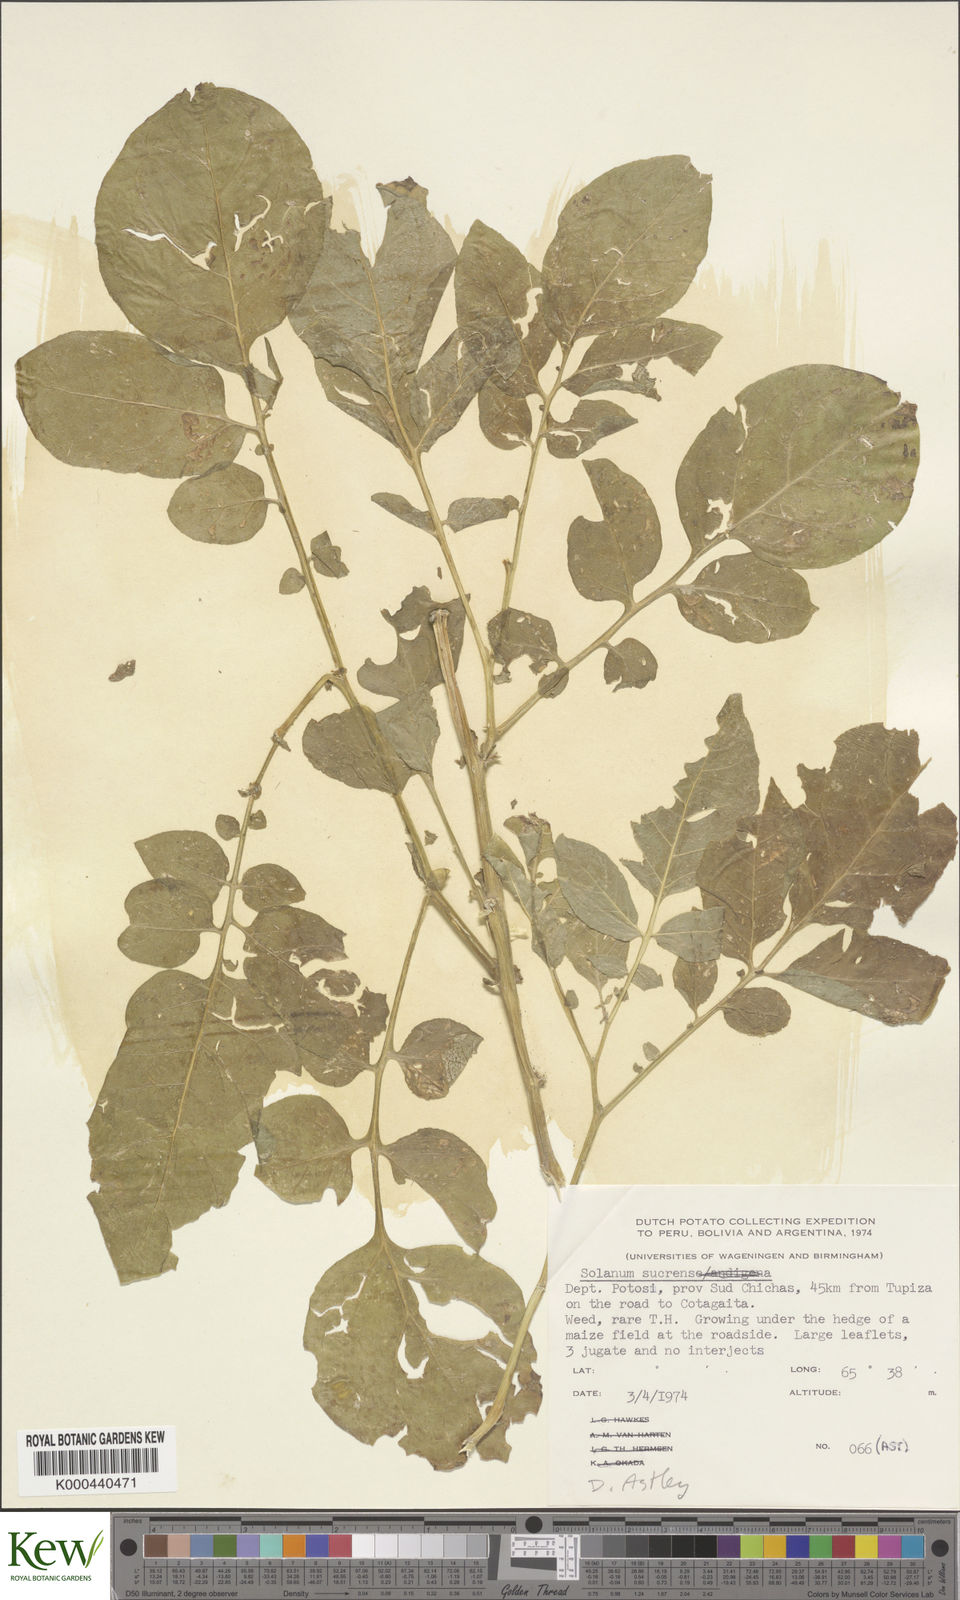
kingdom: Plantae
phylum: Tracheophyta
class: Magnoliopsida
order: Solanales
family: Solanaceae
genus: Solanum
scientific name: Solanum brevicaule
